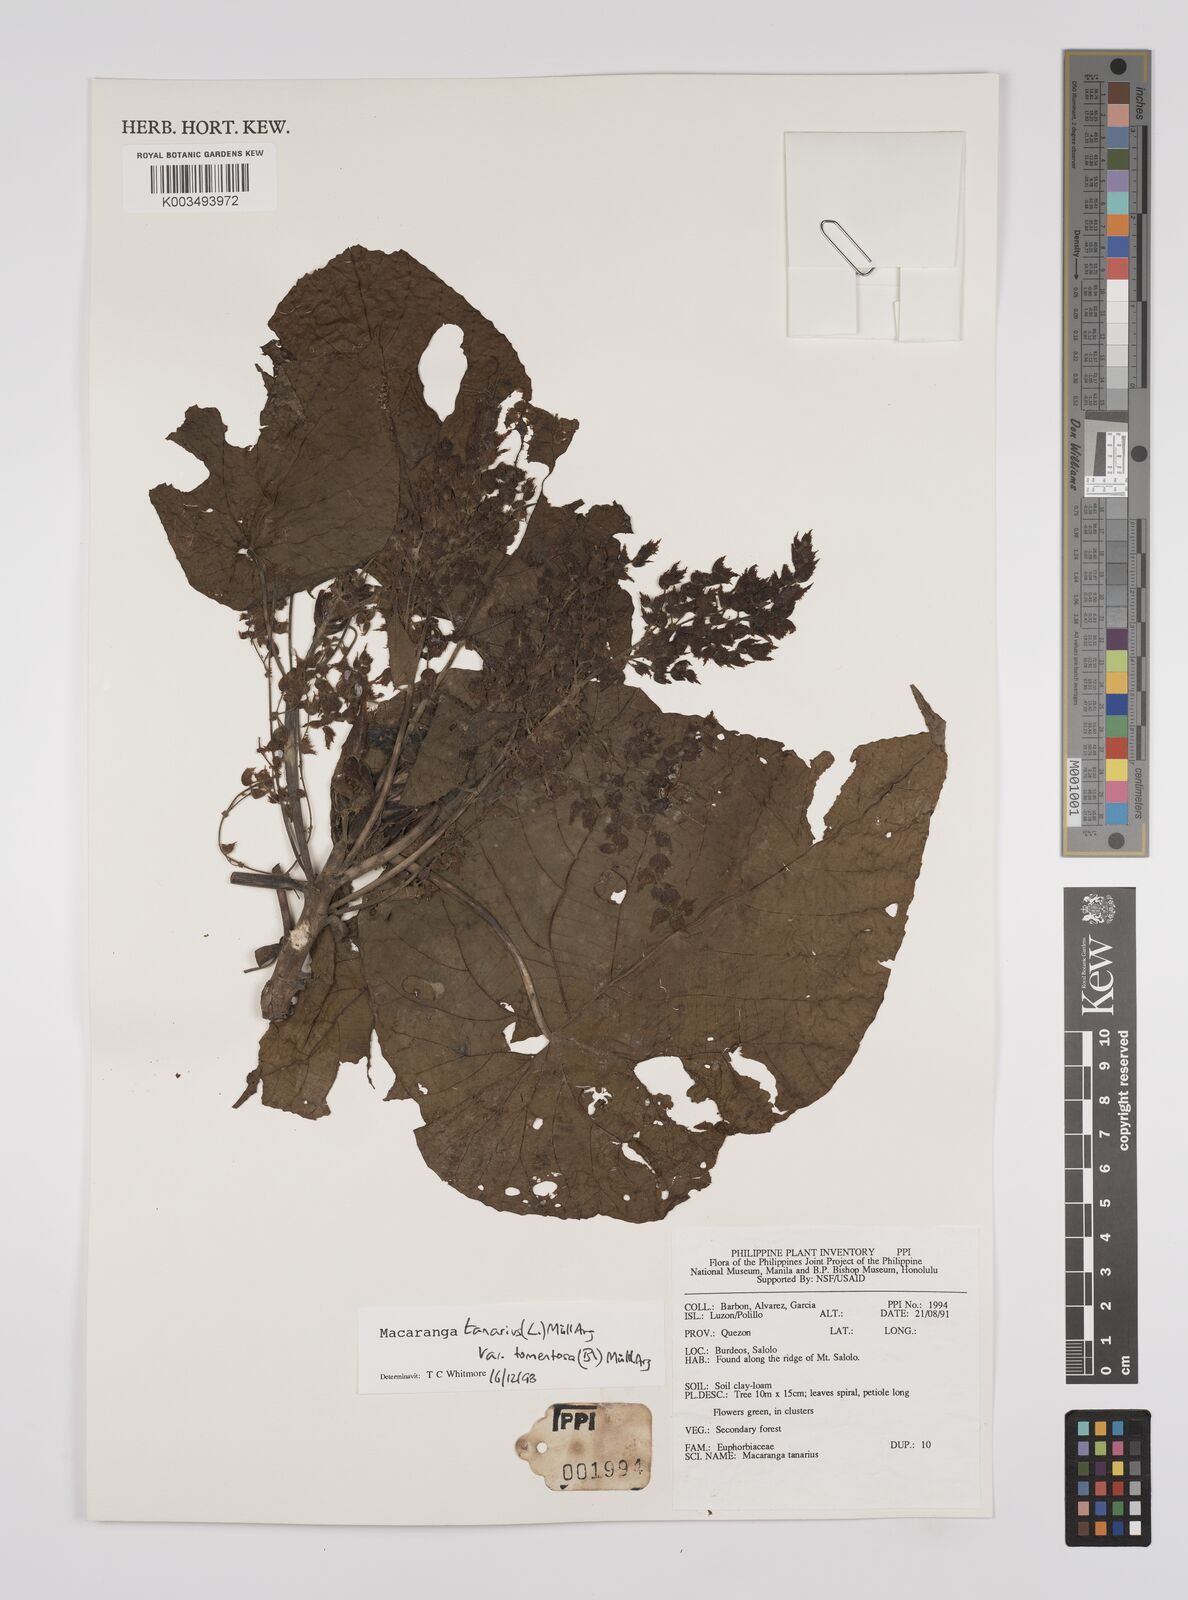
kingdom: Plantae
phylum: Tracheophyta
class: Magnoliopsida
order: Malpighiales
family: Euphorbiaceae
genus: Macaranga
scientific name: Macaranga tanarius
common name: Parasol leaf tree
